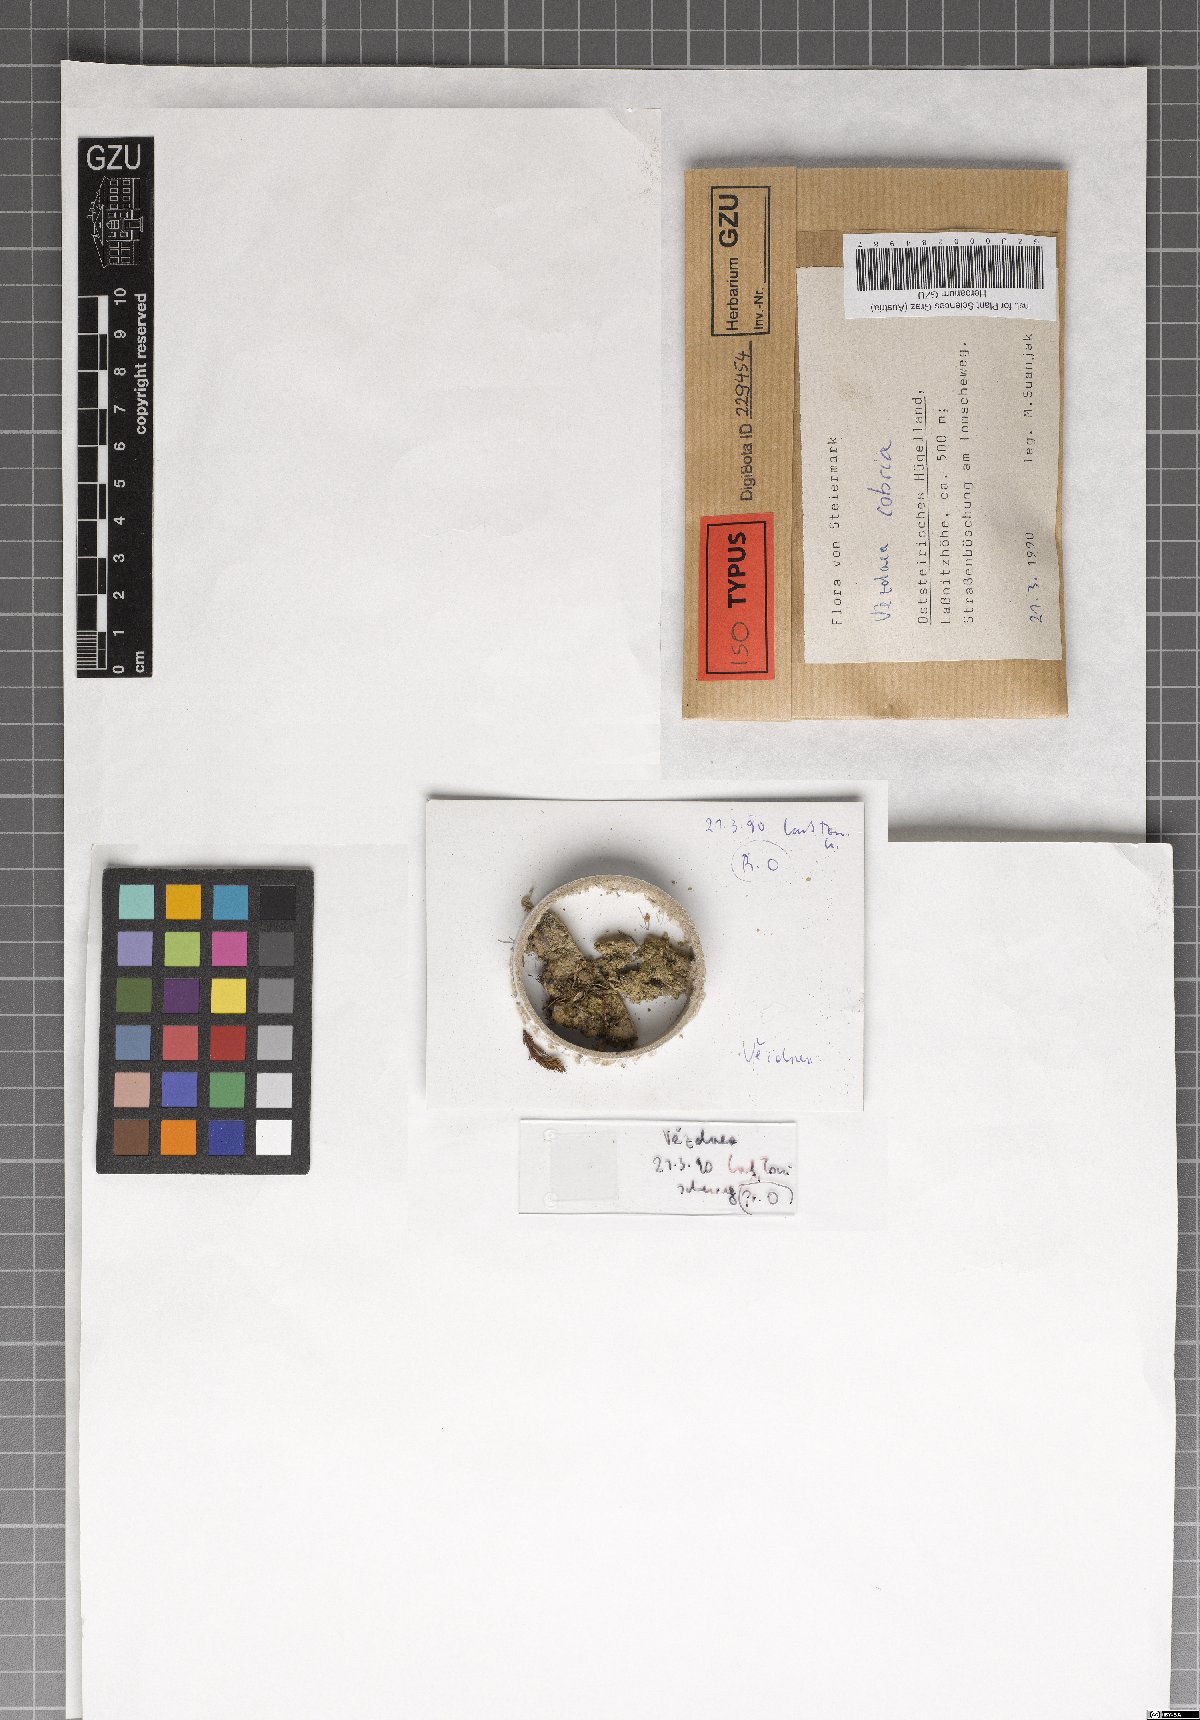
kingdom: Fungi
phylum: Ascomycota
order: Vezdaeales
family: Vezdaeaceae
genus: Vezdaea
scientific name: Vezdaea cobria
